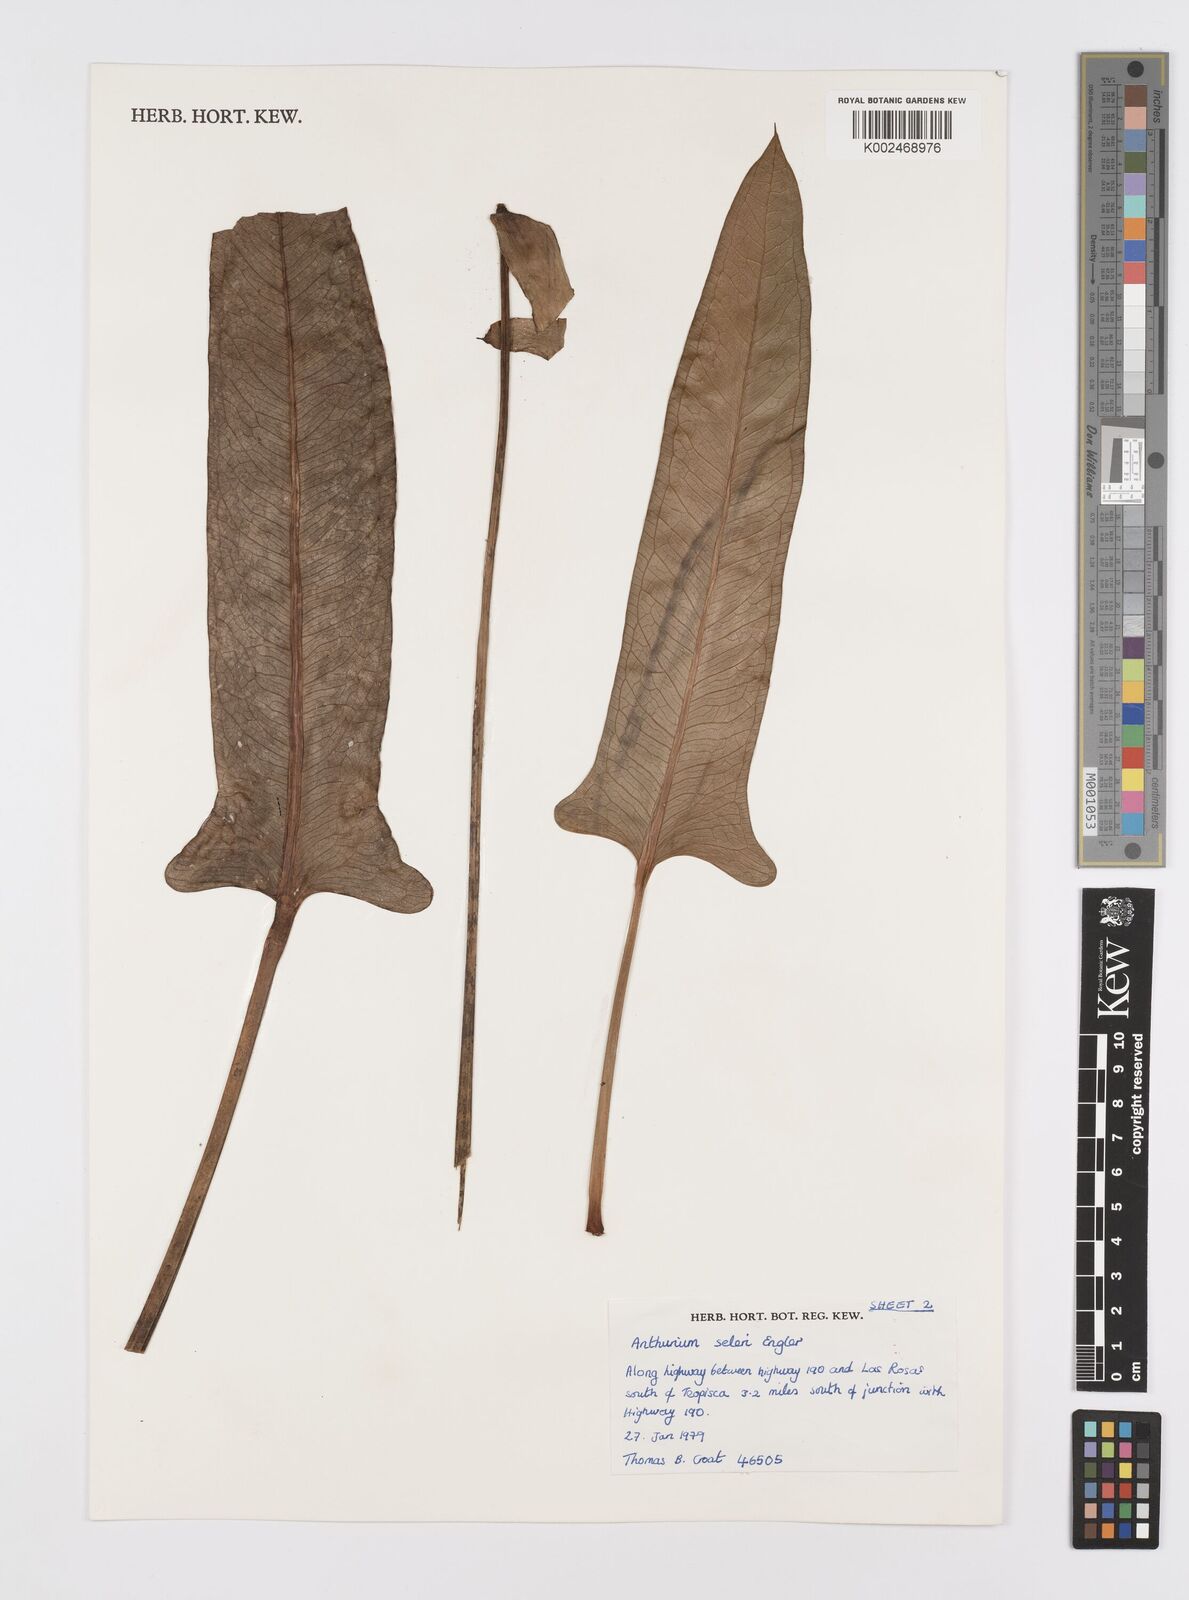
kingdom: Plantae
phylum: Tracheophyta
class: Liliopsida
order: Alismatales
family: Araceae
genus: Anthurium
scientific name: Anthurium seleri
